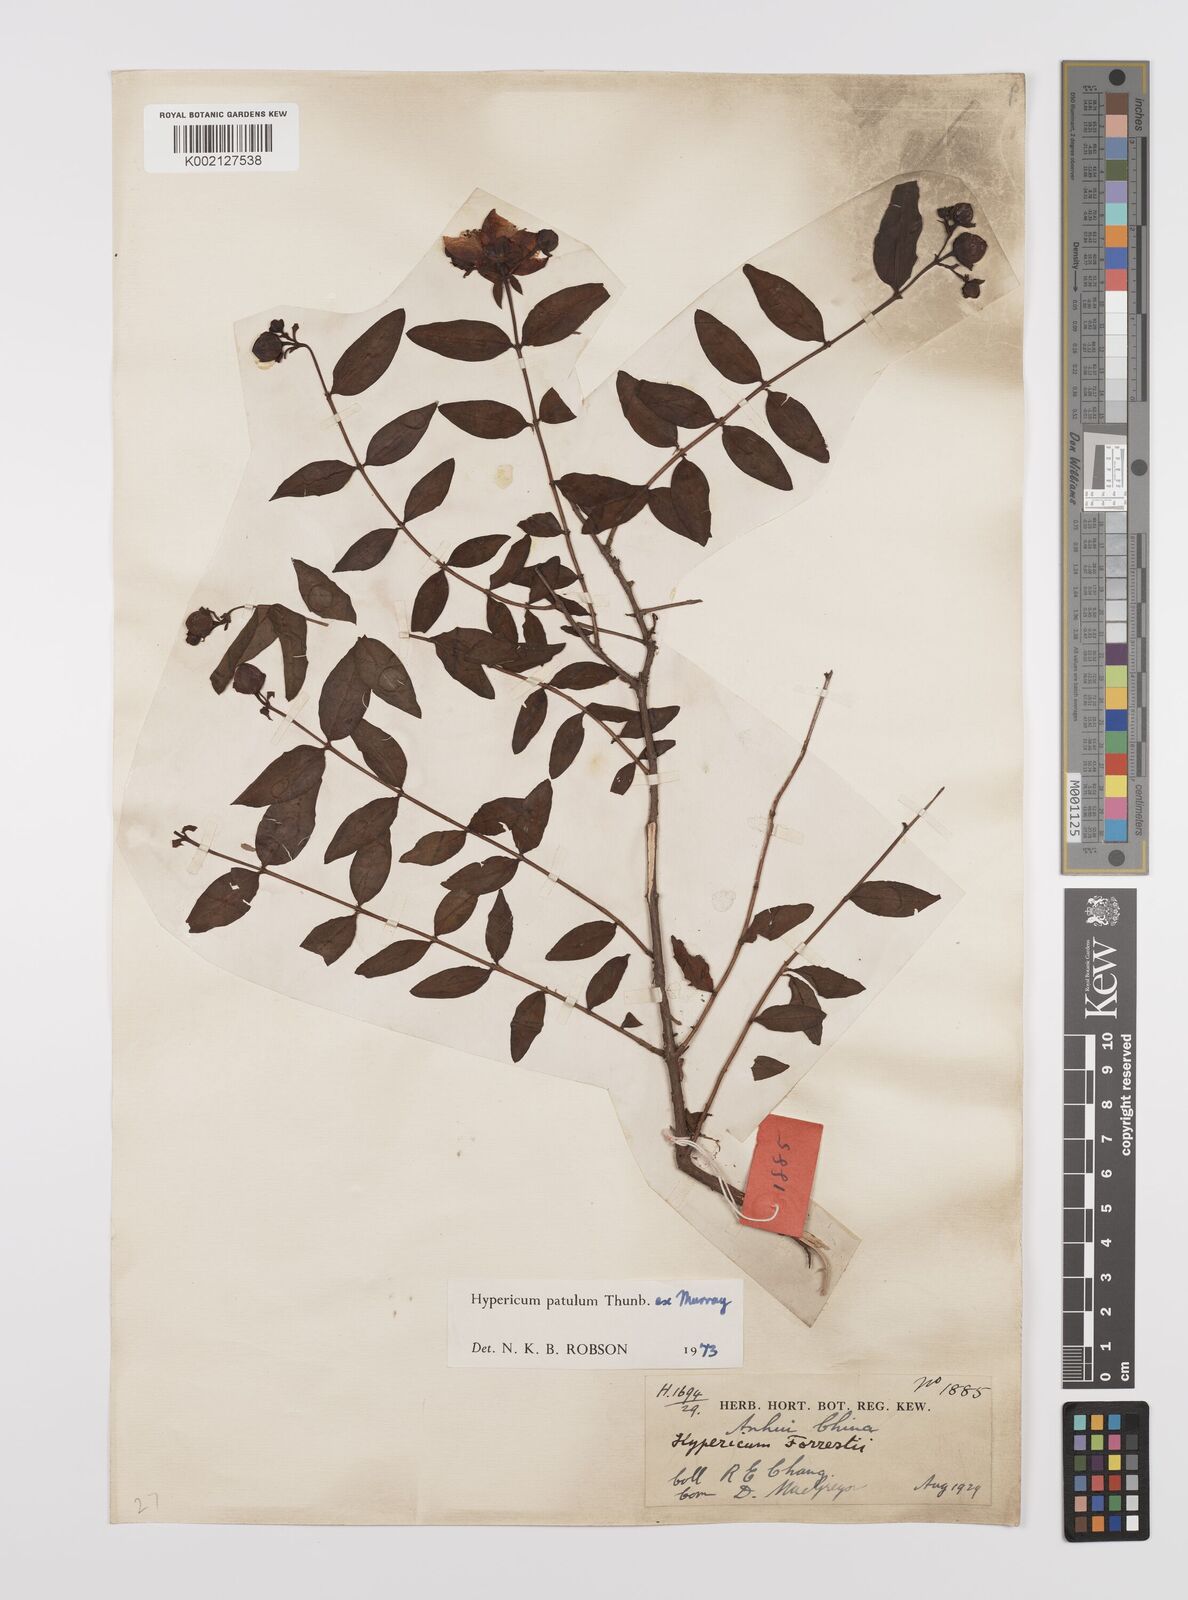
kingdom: Plantae
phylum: Tracheophyta
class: Magnoliopsida
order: Malpighiales
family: Hypericaceae
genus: Hypericum
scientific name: Hypericum patulum
